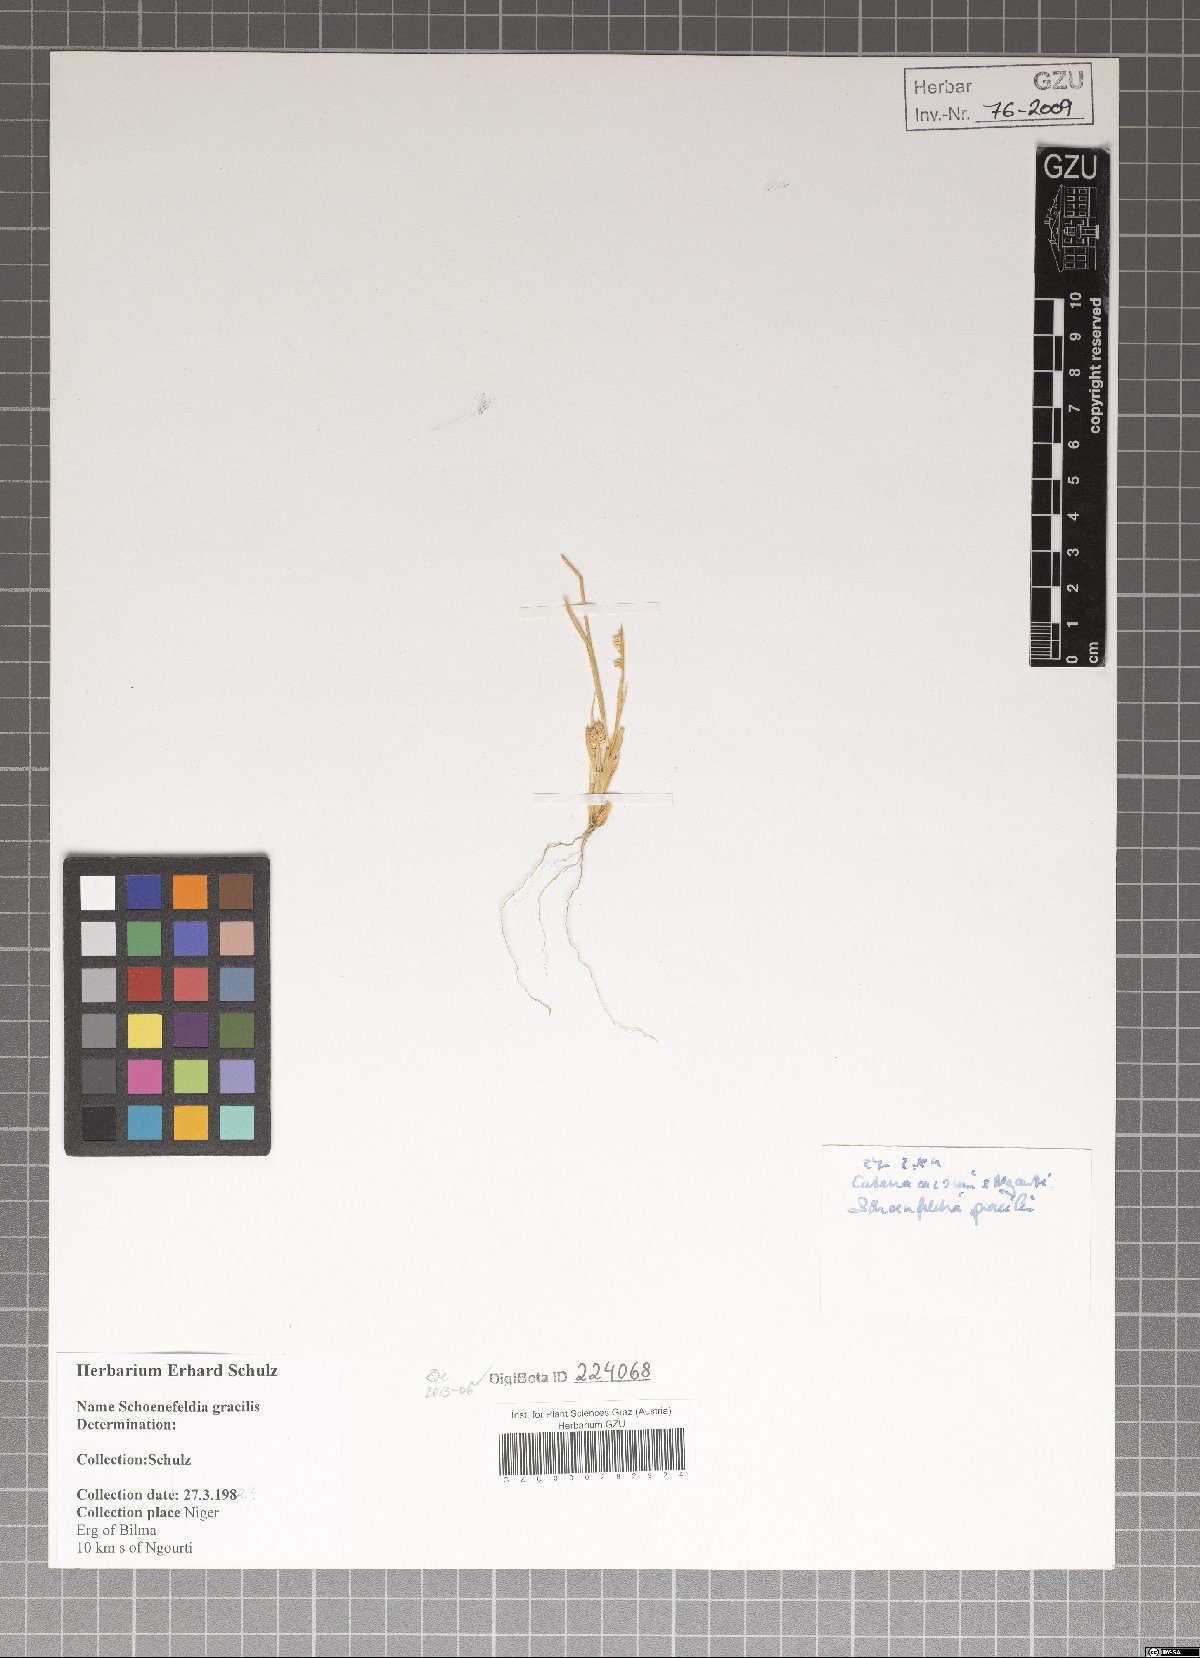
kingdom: Plantae
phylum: Tracheophyta
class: Liliopsida
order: Poales
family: Poaceae
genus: Schoenefeldia
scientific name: Schoenefeldia gracilis
